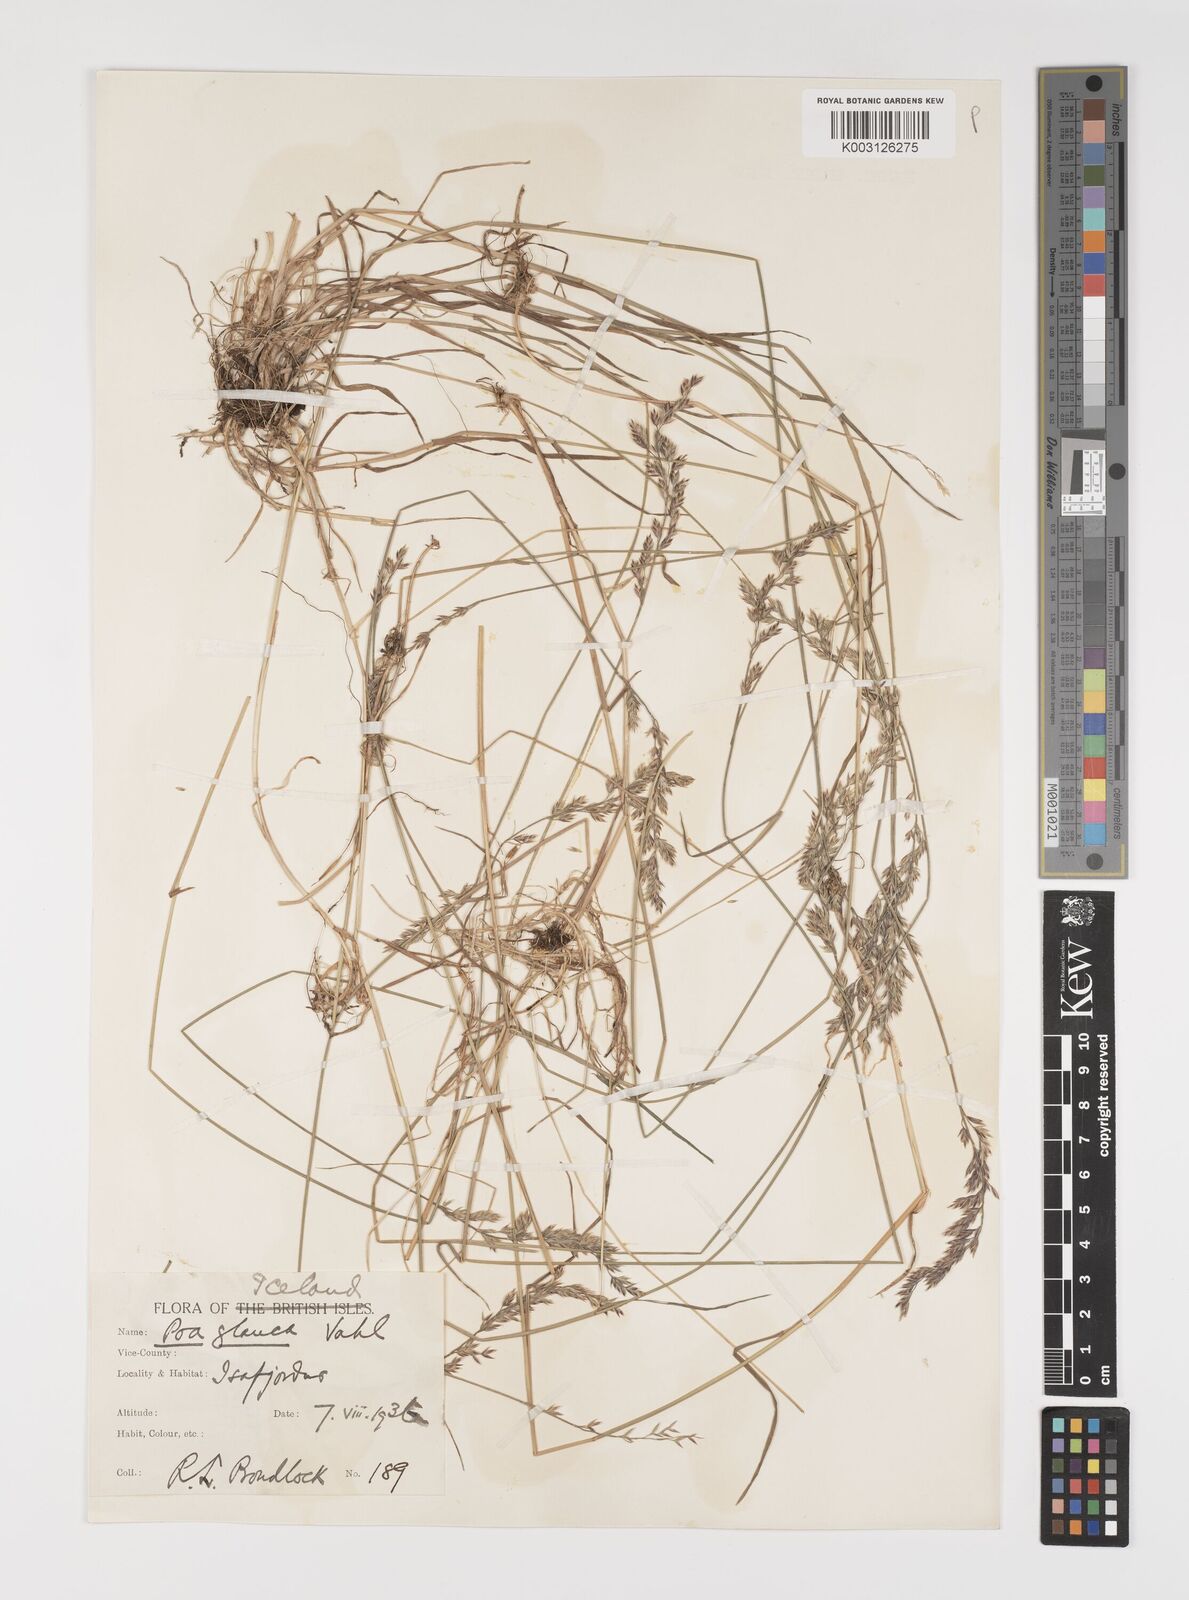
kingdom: Plantae
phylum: Tracheophyta
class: Liliopsida
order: Poales
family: Poaceae
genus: Poa
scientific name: Poa glauca
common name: Glaucous bluegrass
